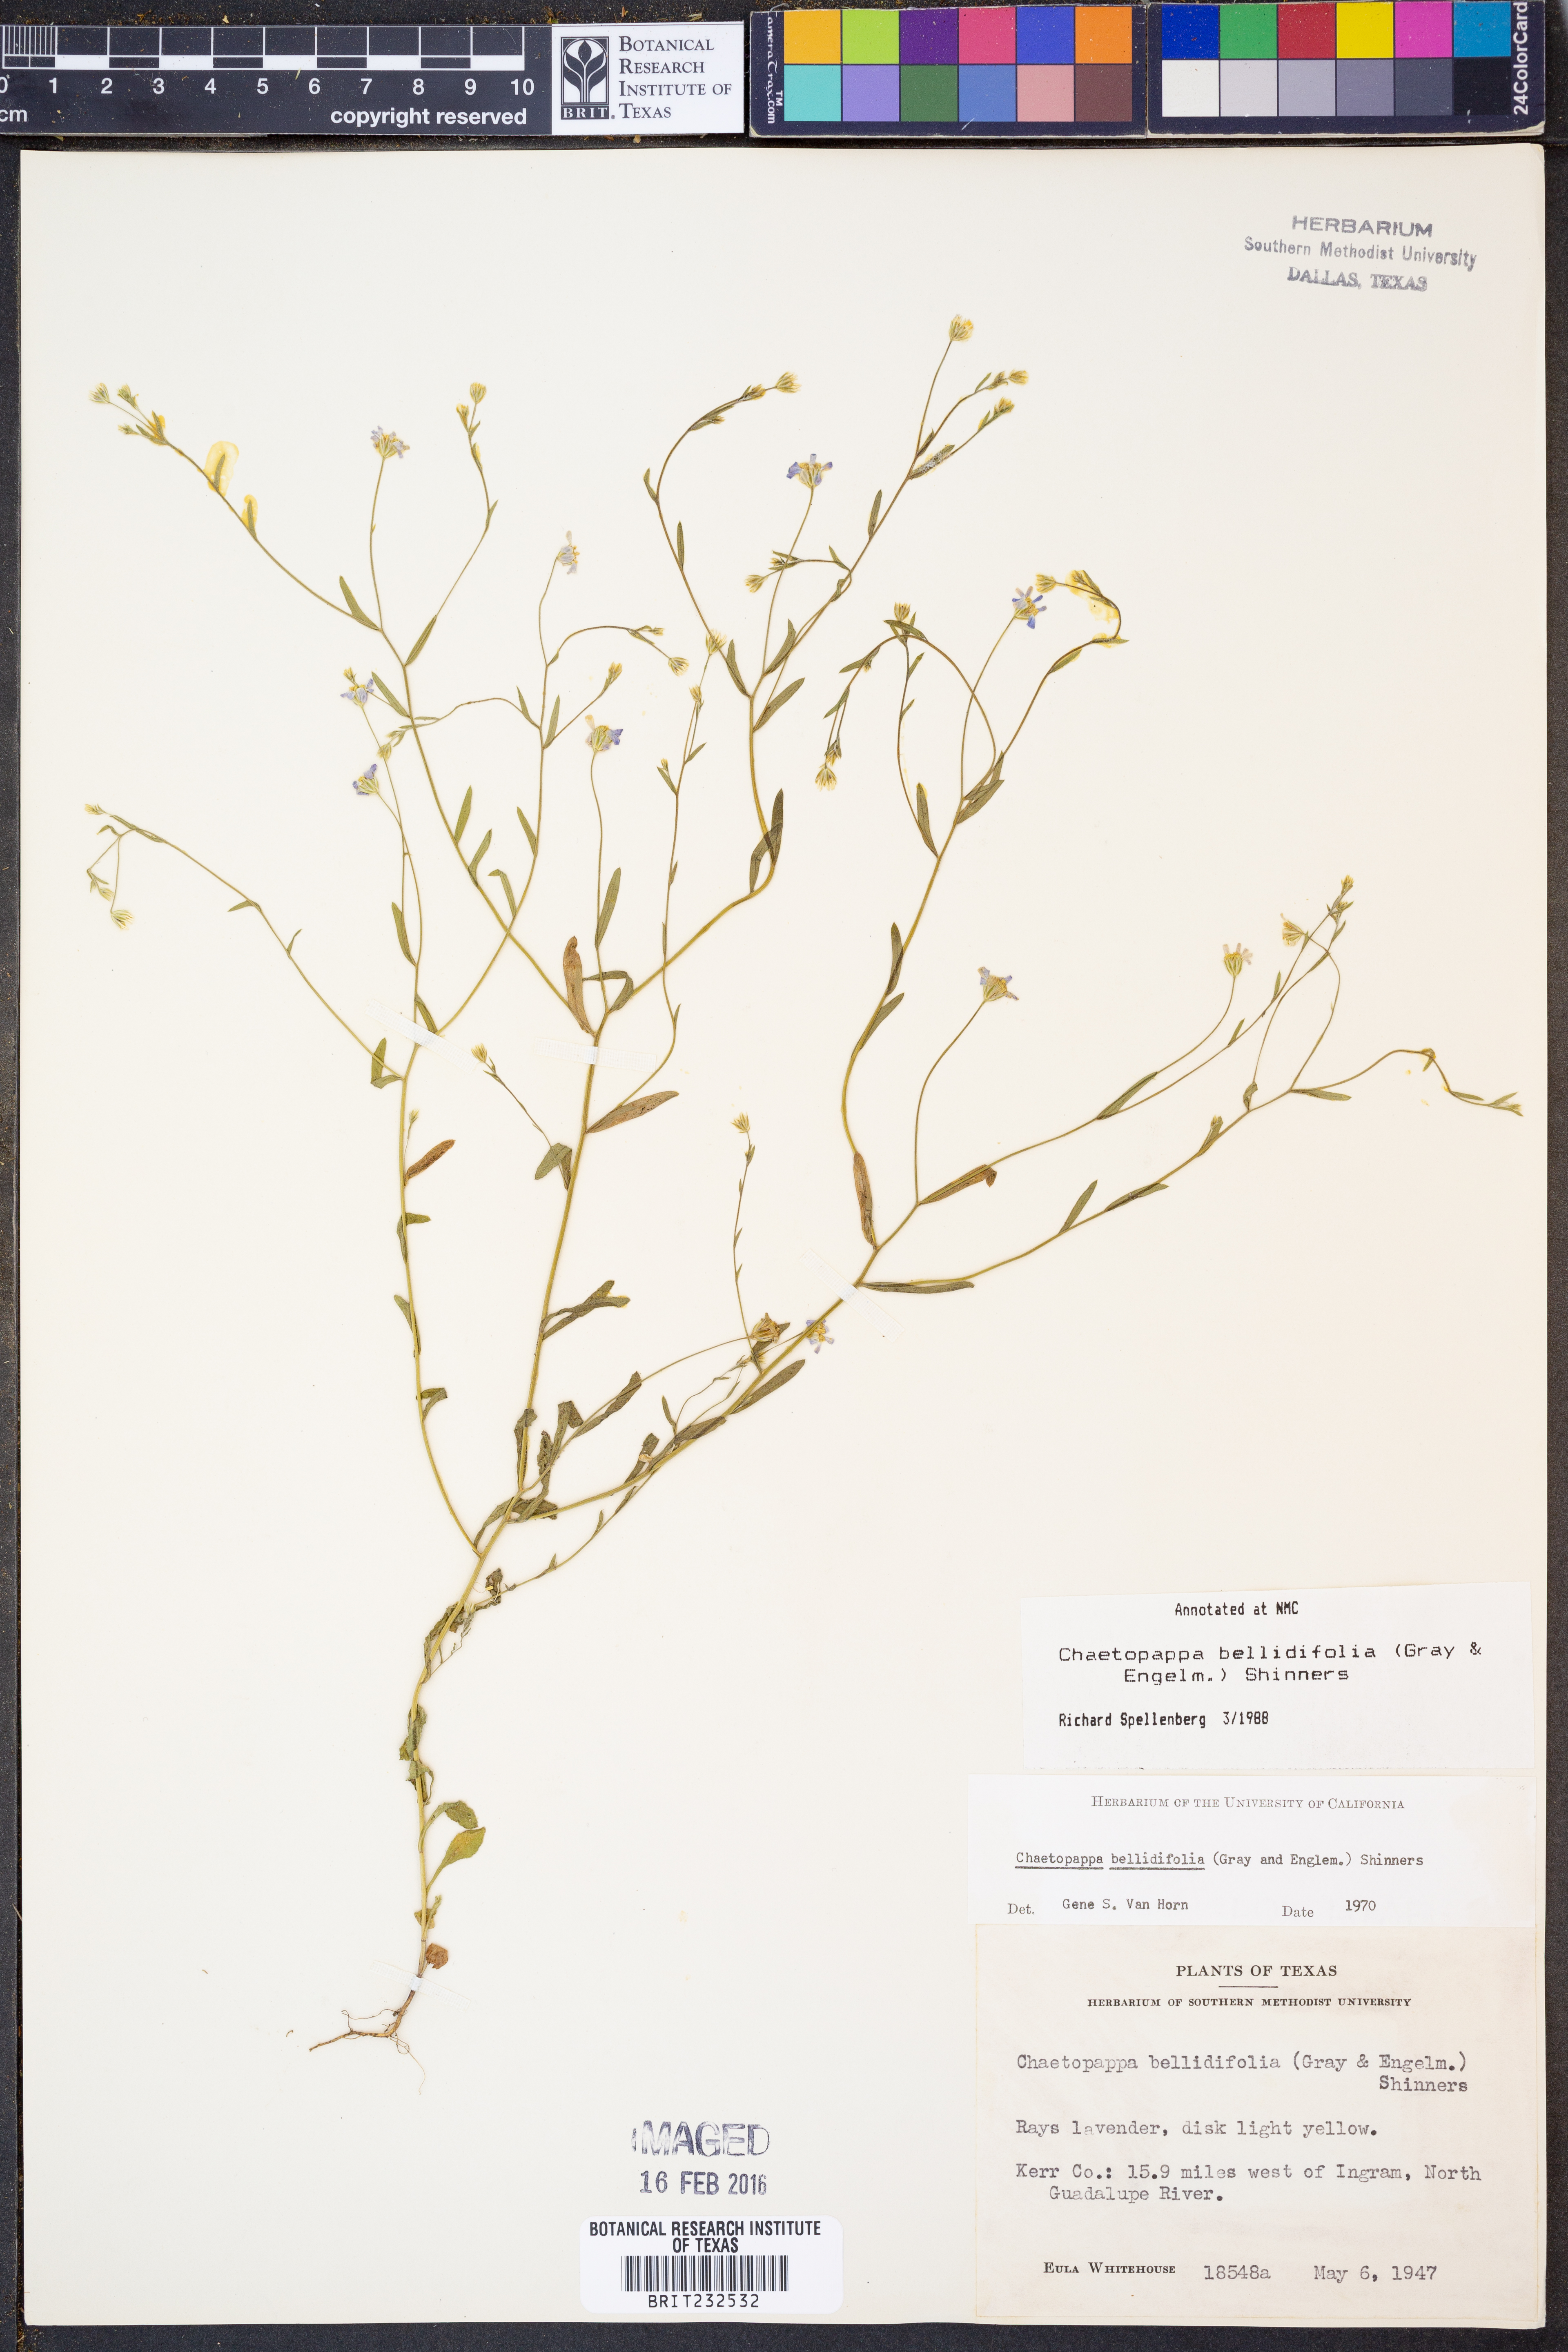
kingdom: Plantae
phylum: Tracheophyta
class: Magnoliopsida
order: Asterales
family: Asteraceae
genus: Chaetopappa
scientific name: Chaetopappa bellidifolia
